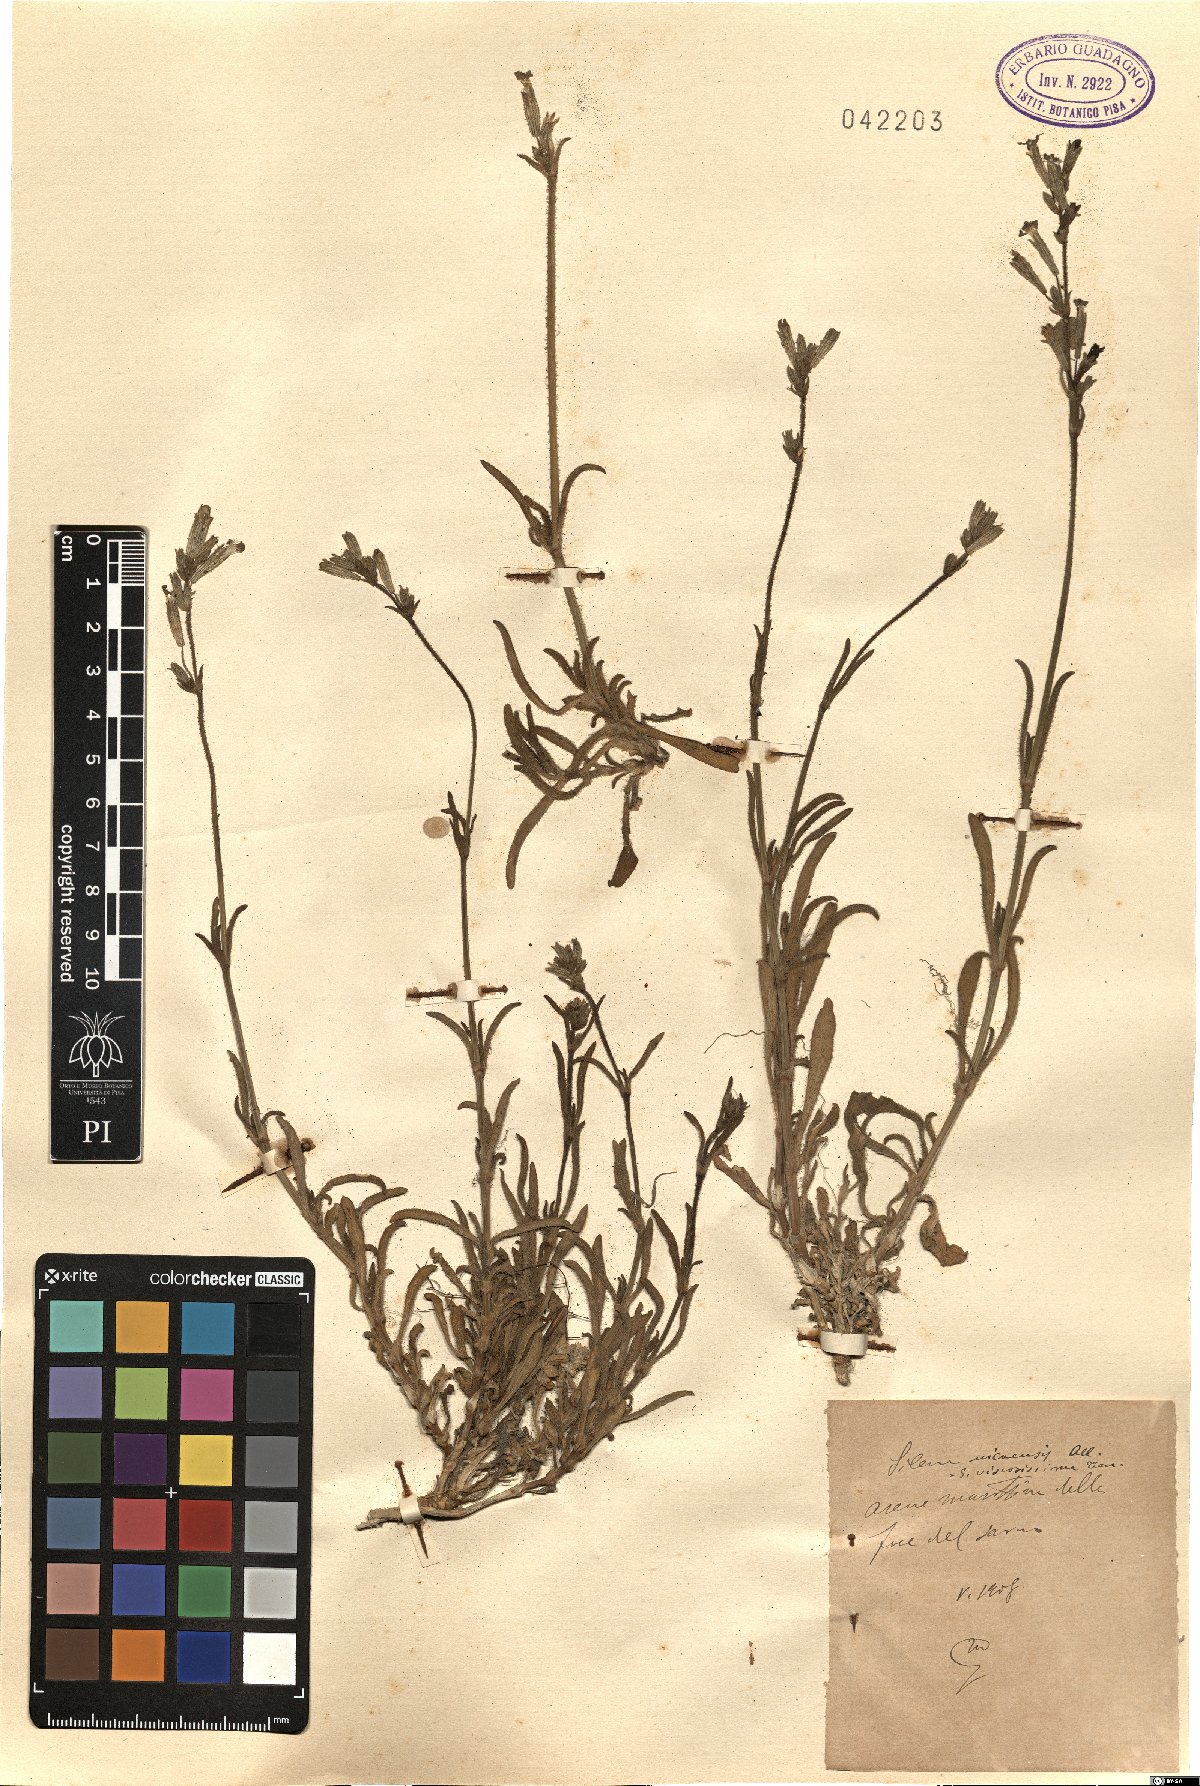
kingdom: Plantae
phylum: Tracheophyta
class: Magnoliopsida
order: Caryophyllales
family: Caryophyllaceae
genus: Silene
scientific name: Silene nicaeensis
